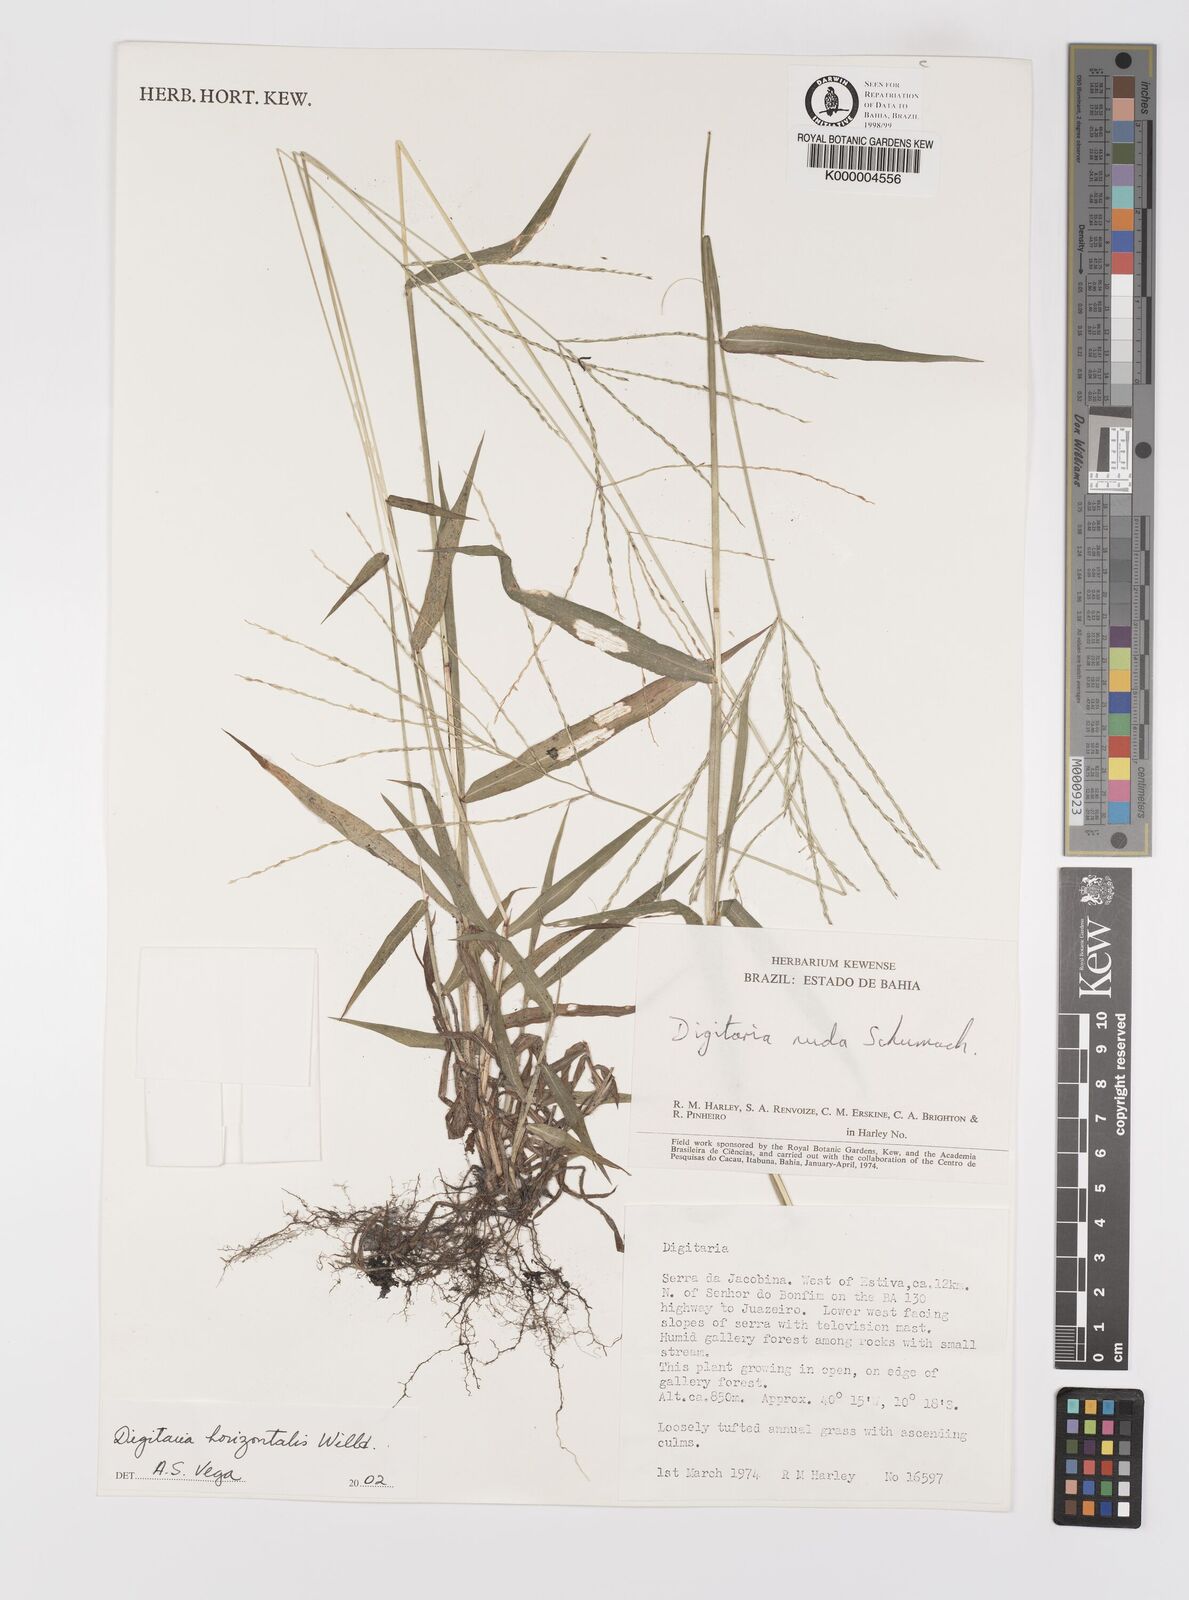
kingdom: Plantae
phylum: Tracheophyta
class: Liliopsida
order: Poales
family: Poaceae
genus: Digitaria
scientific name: Digitaria nuda
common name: Naked crabgrass
